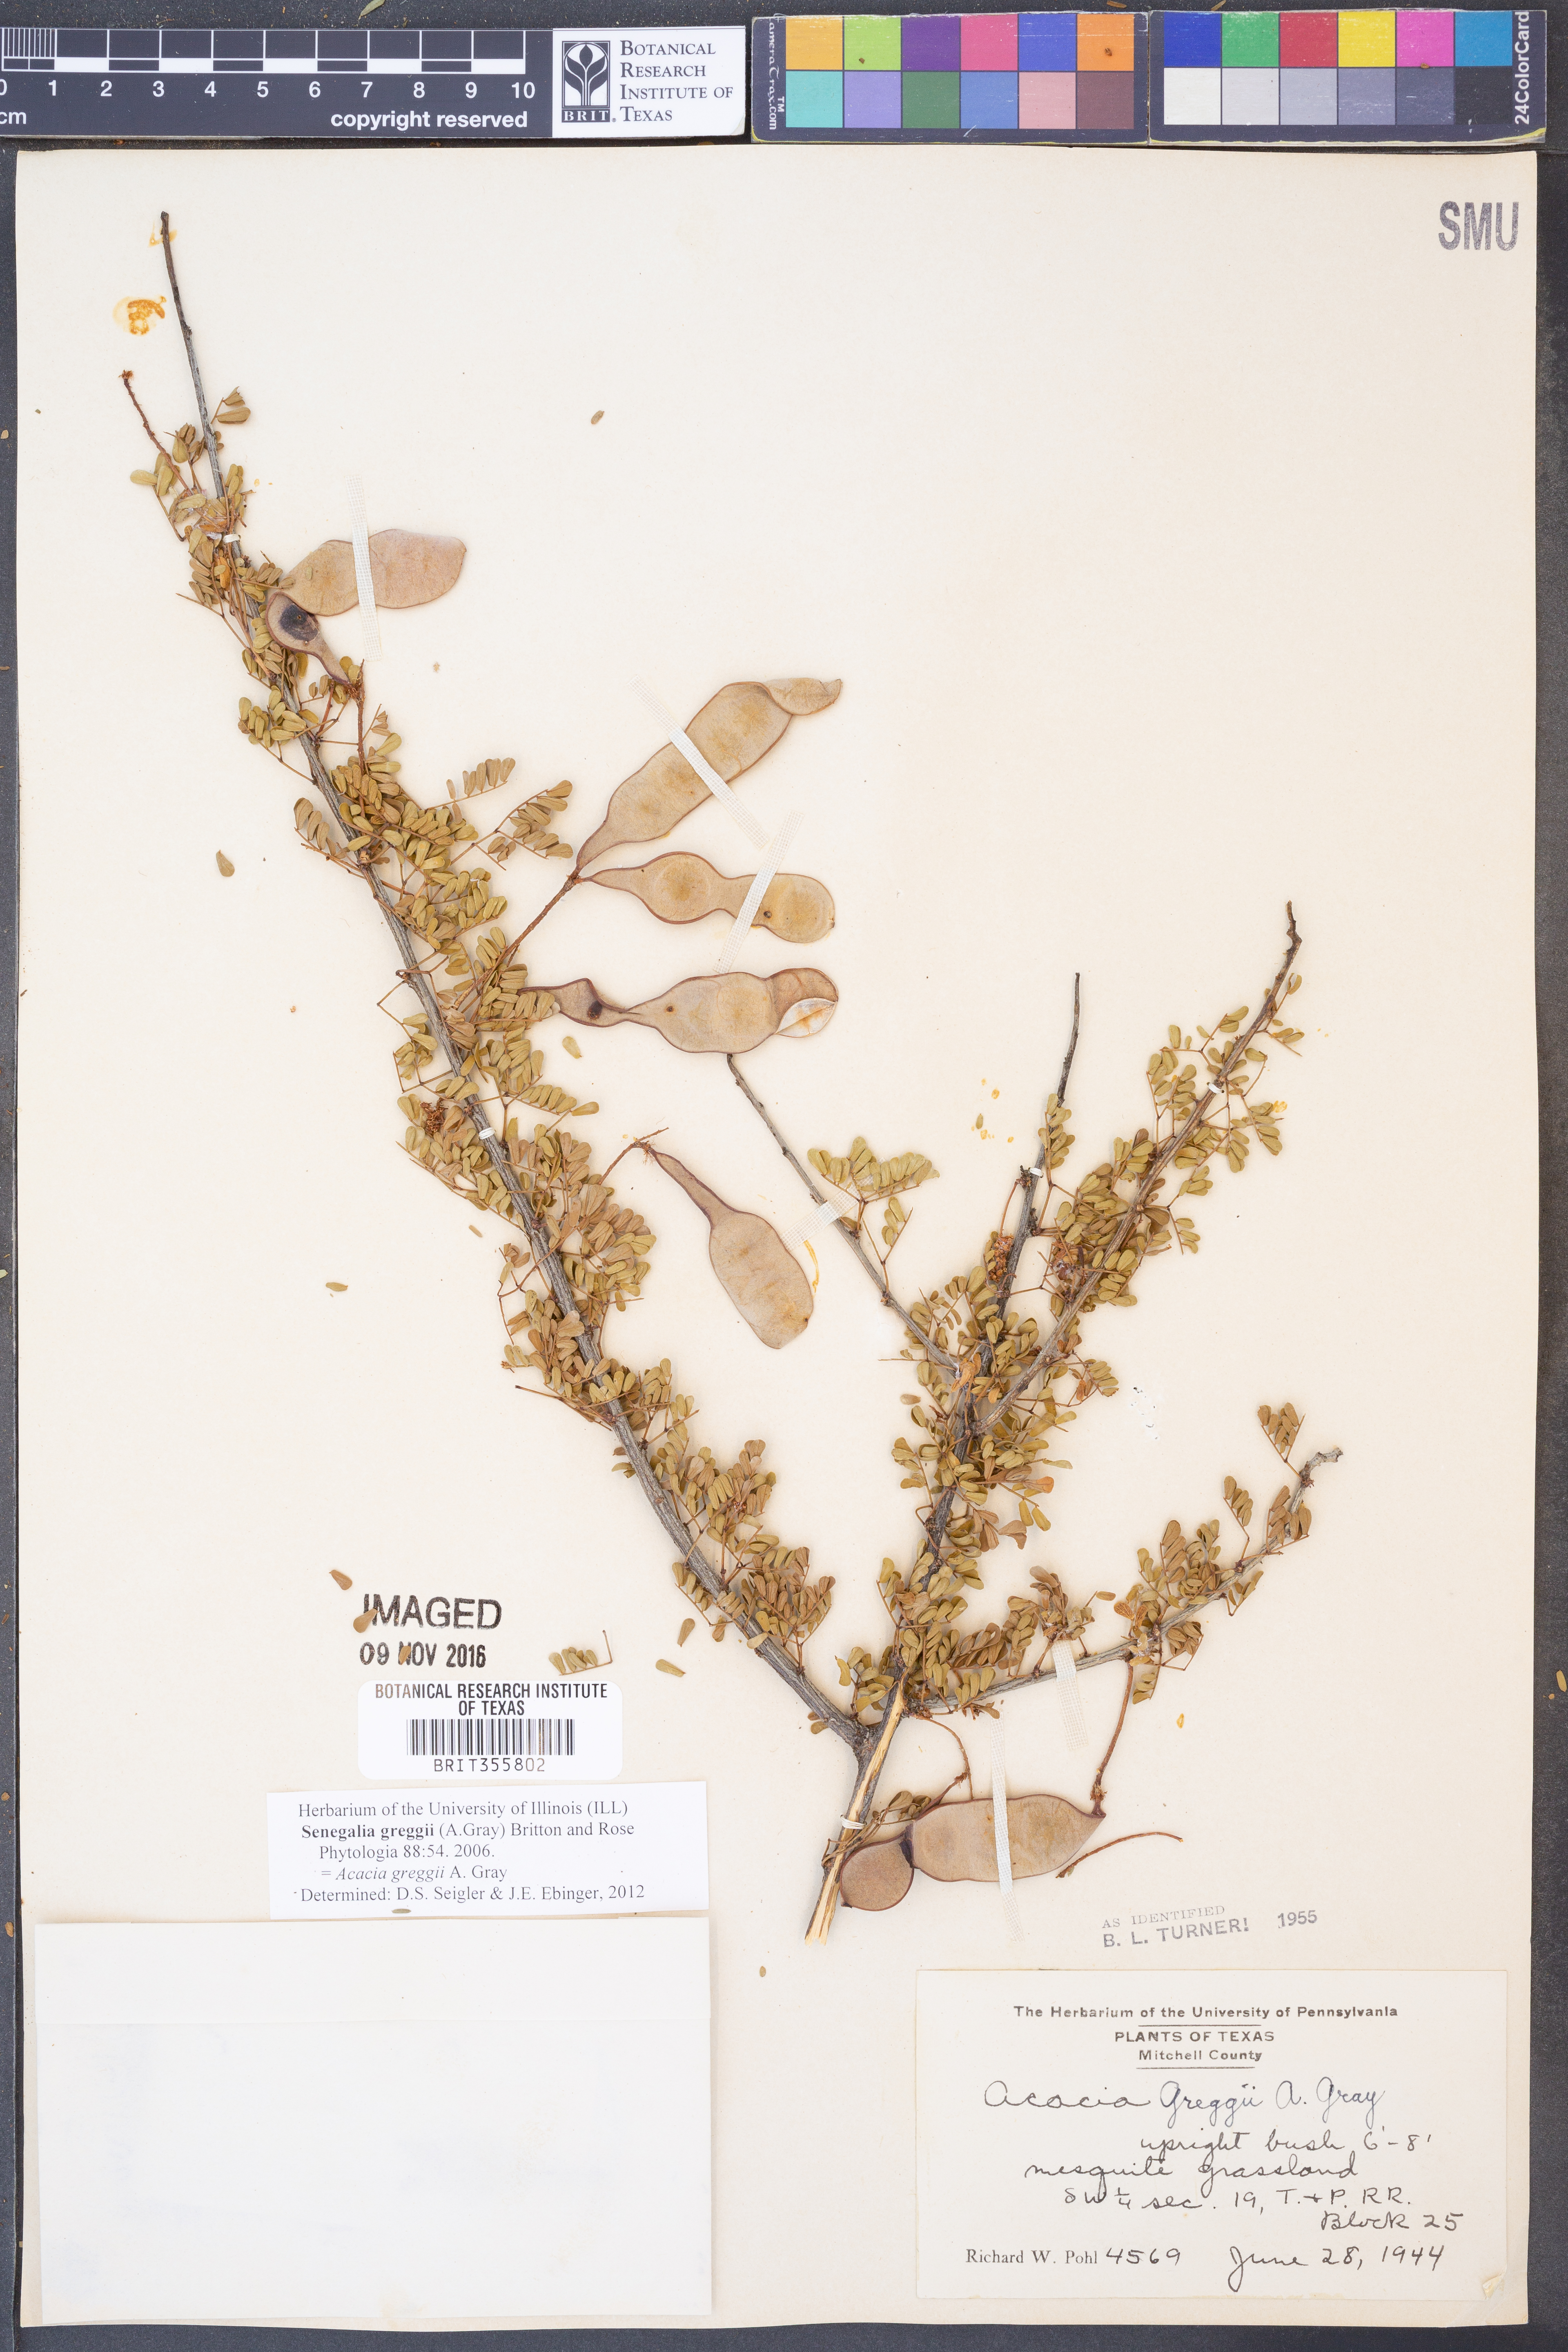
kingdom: Plantae
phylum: Tracheophyta
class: Magnoliopsida
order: Fabales
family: Fabaceae
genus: Senegalia
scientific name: Senegalia greggii
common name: Texas-mimosa
